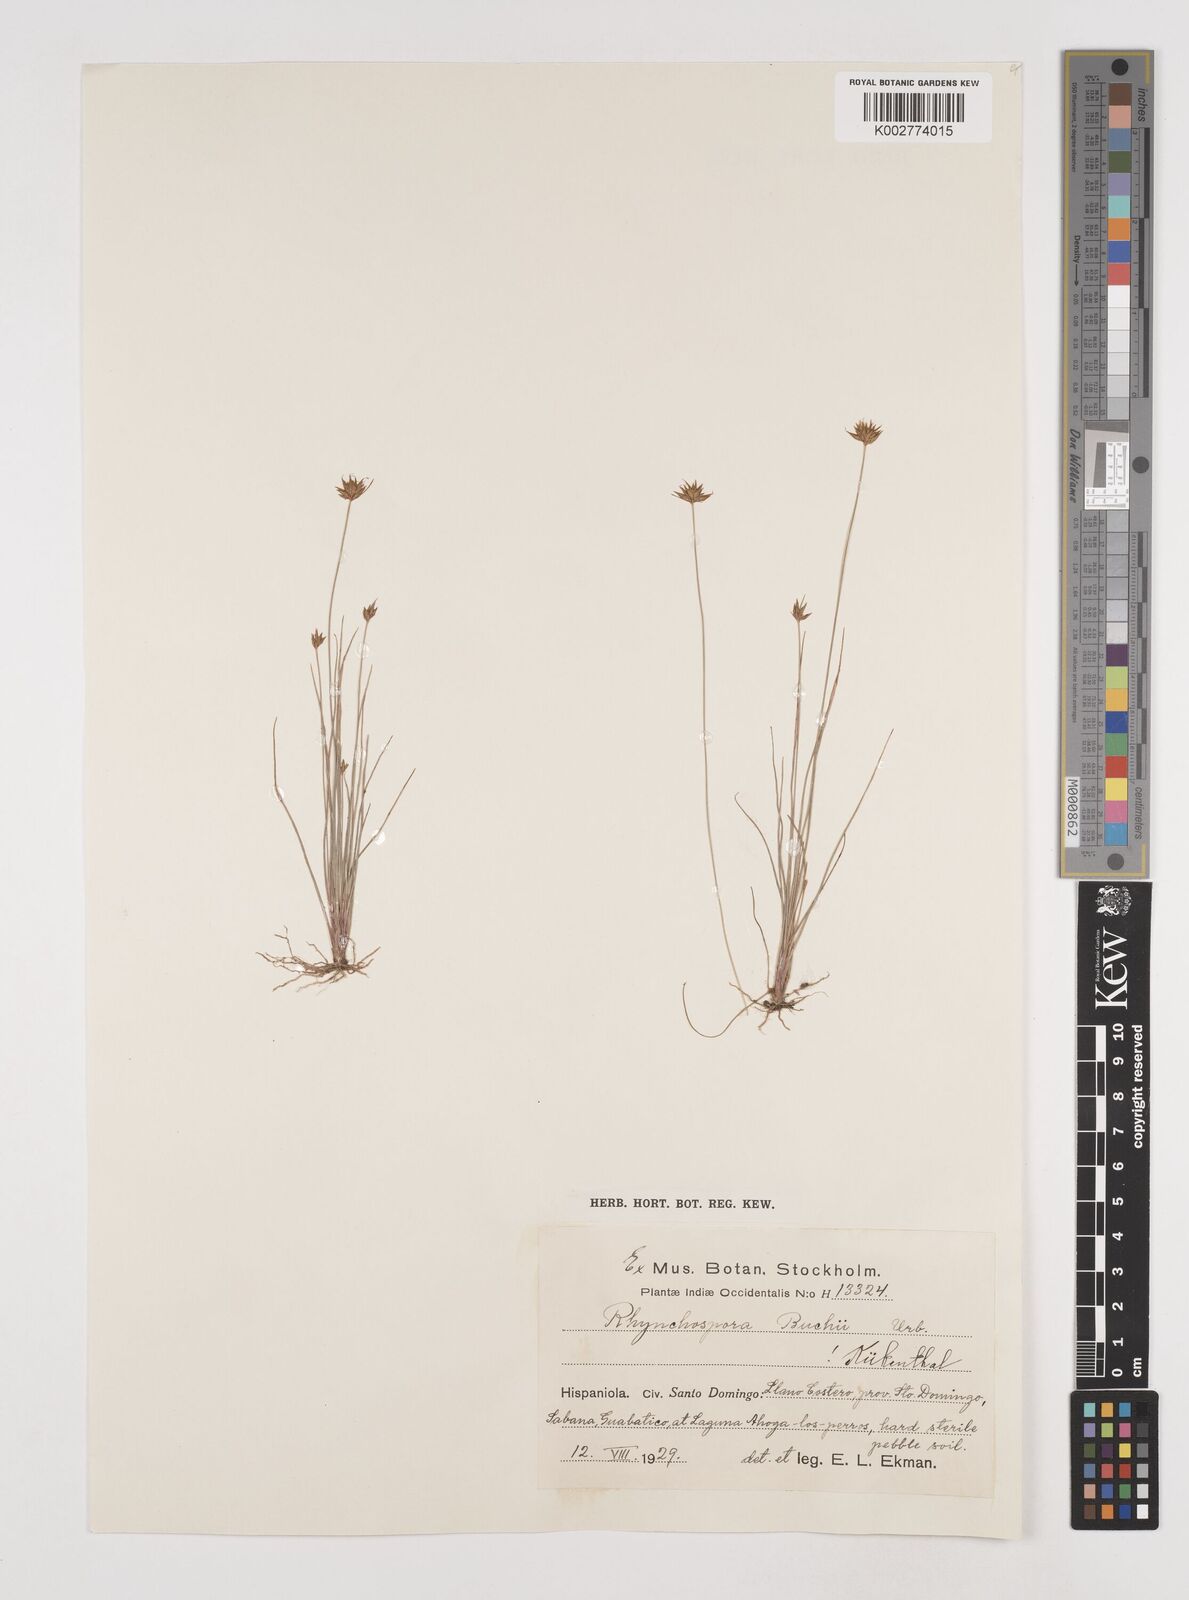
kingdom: Plantae
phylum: Tracheophyta
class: Liliopsida
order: Poales
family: Cyperaceae
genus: Rhynchospora
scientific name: Rhynchospora mexicana
